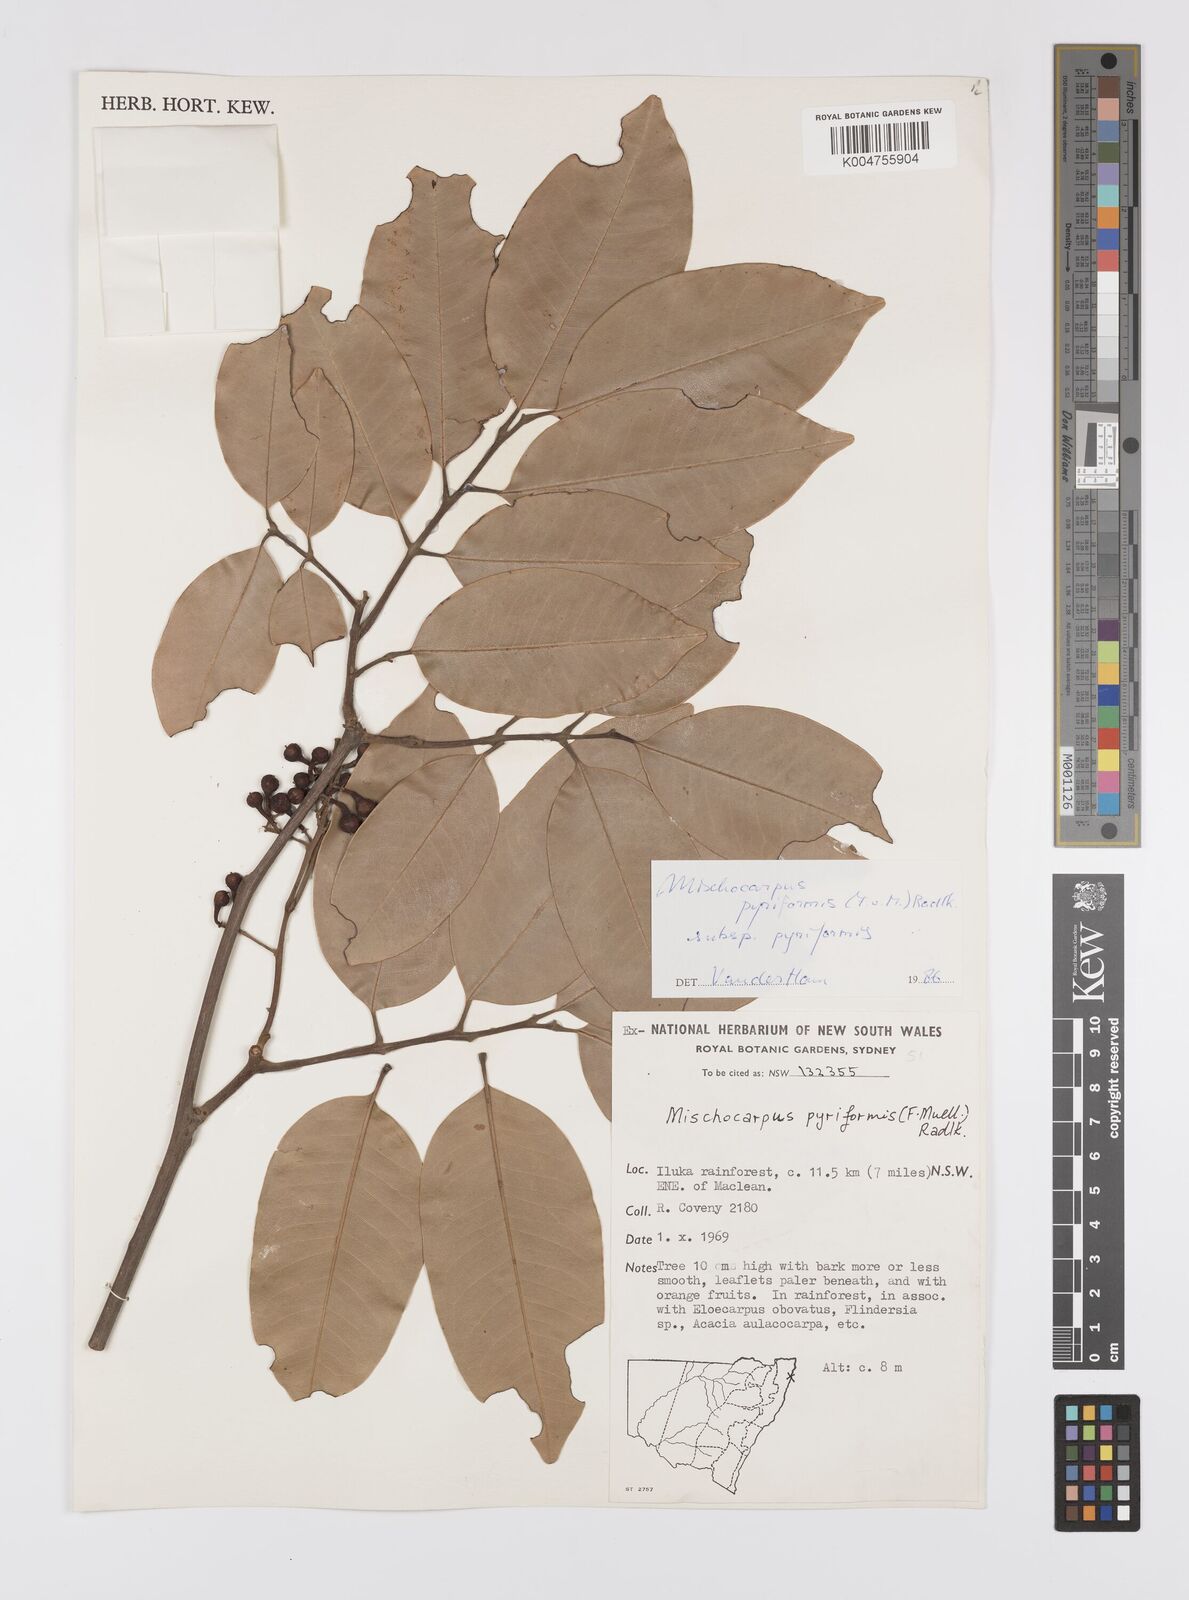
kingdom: Plantae
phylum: Tracheophyta
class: Magnoliopsida
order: Sapindales
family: Sapindaceae
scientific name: Sapindaceae
